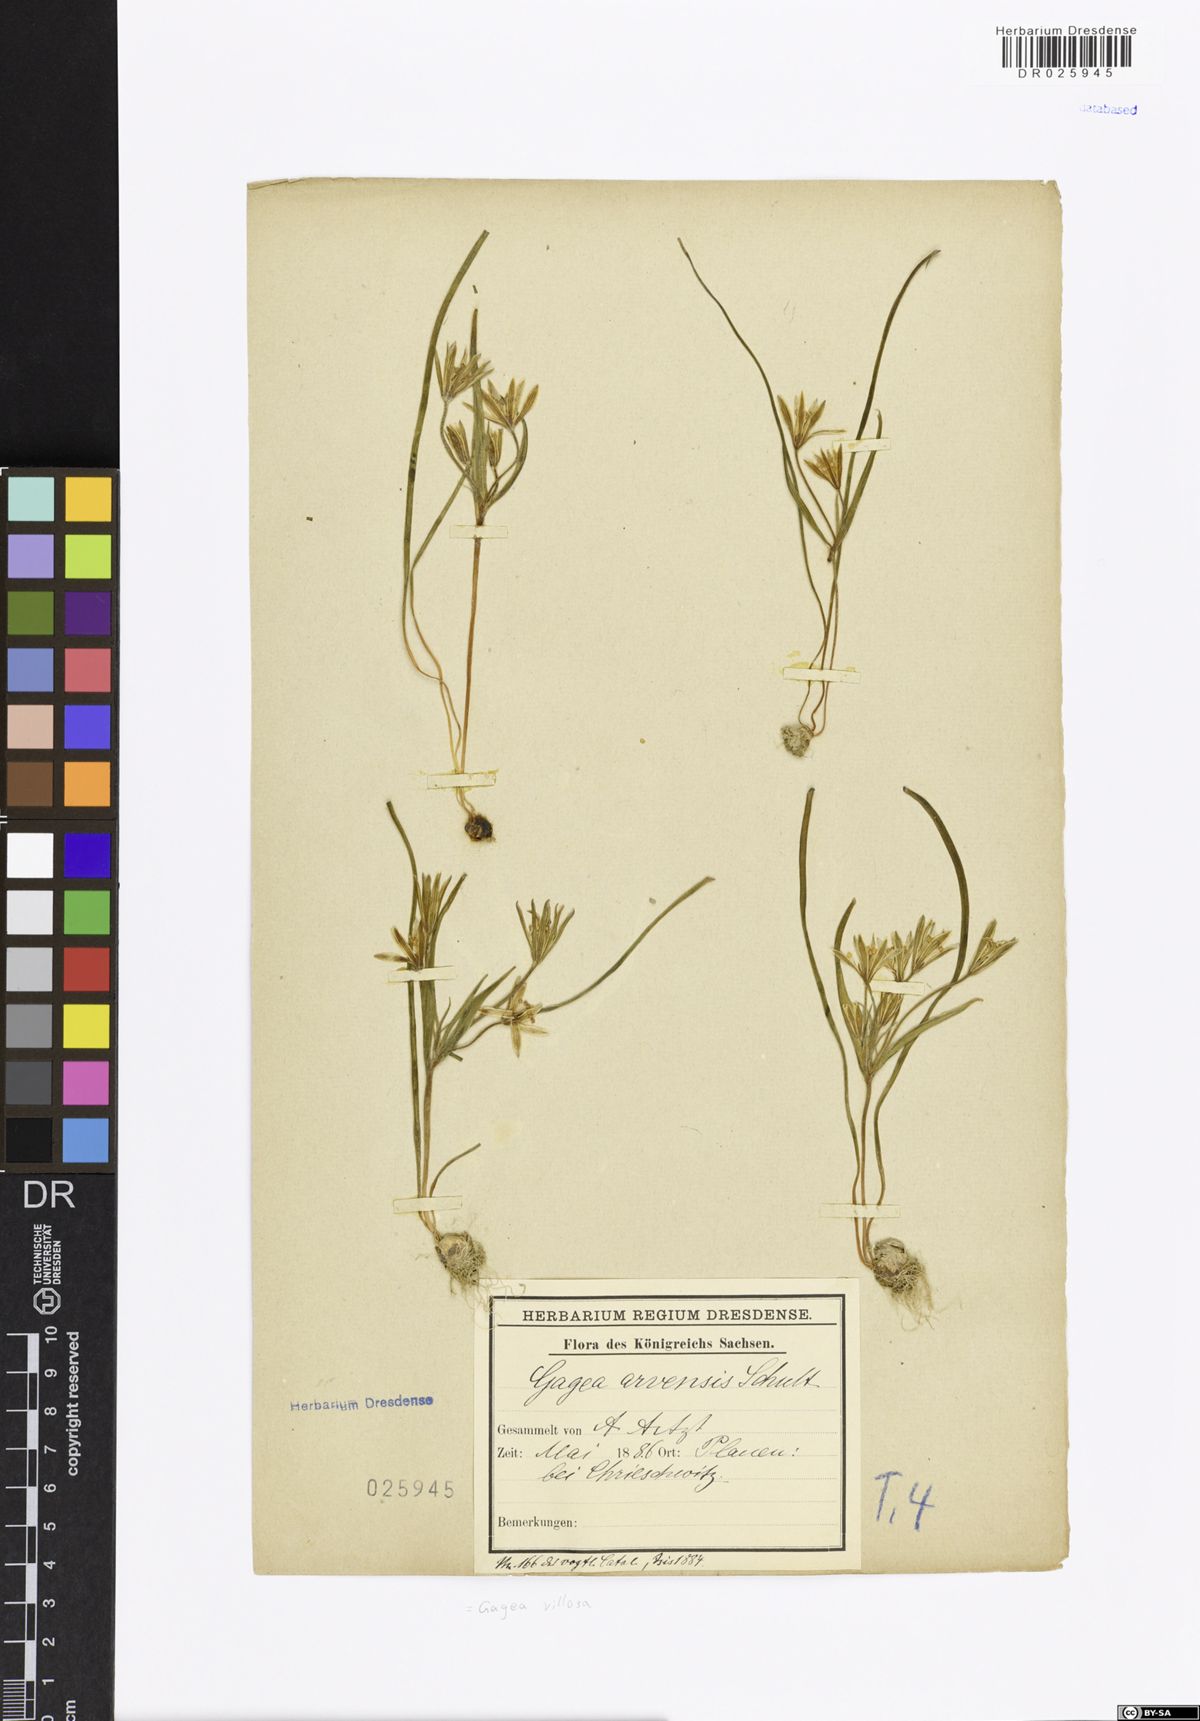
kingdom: Plantae
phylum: Tracheophyta
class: Liliopsida
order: Liliales
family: Liliaceae
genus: Gagea
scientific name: Gagea villosa
